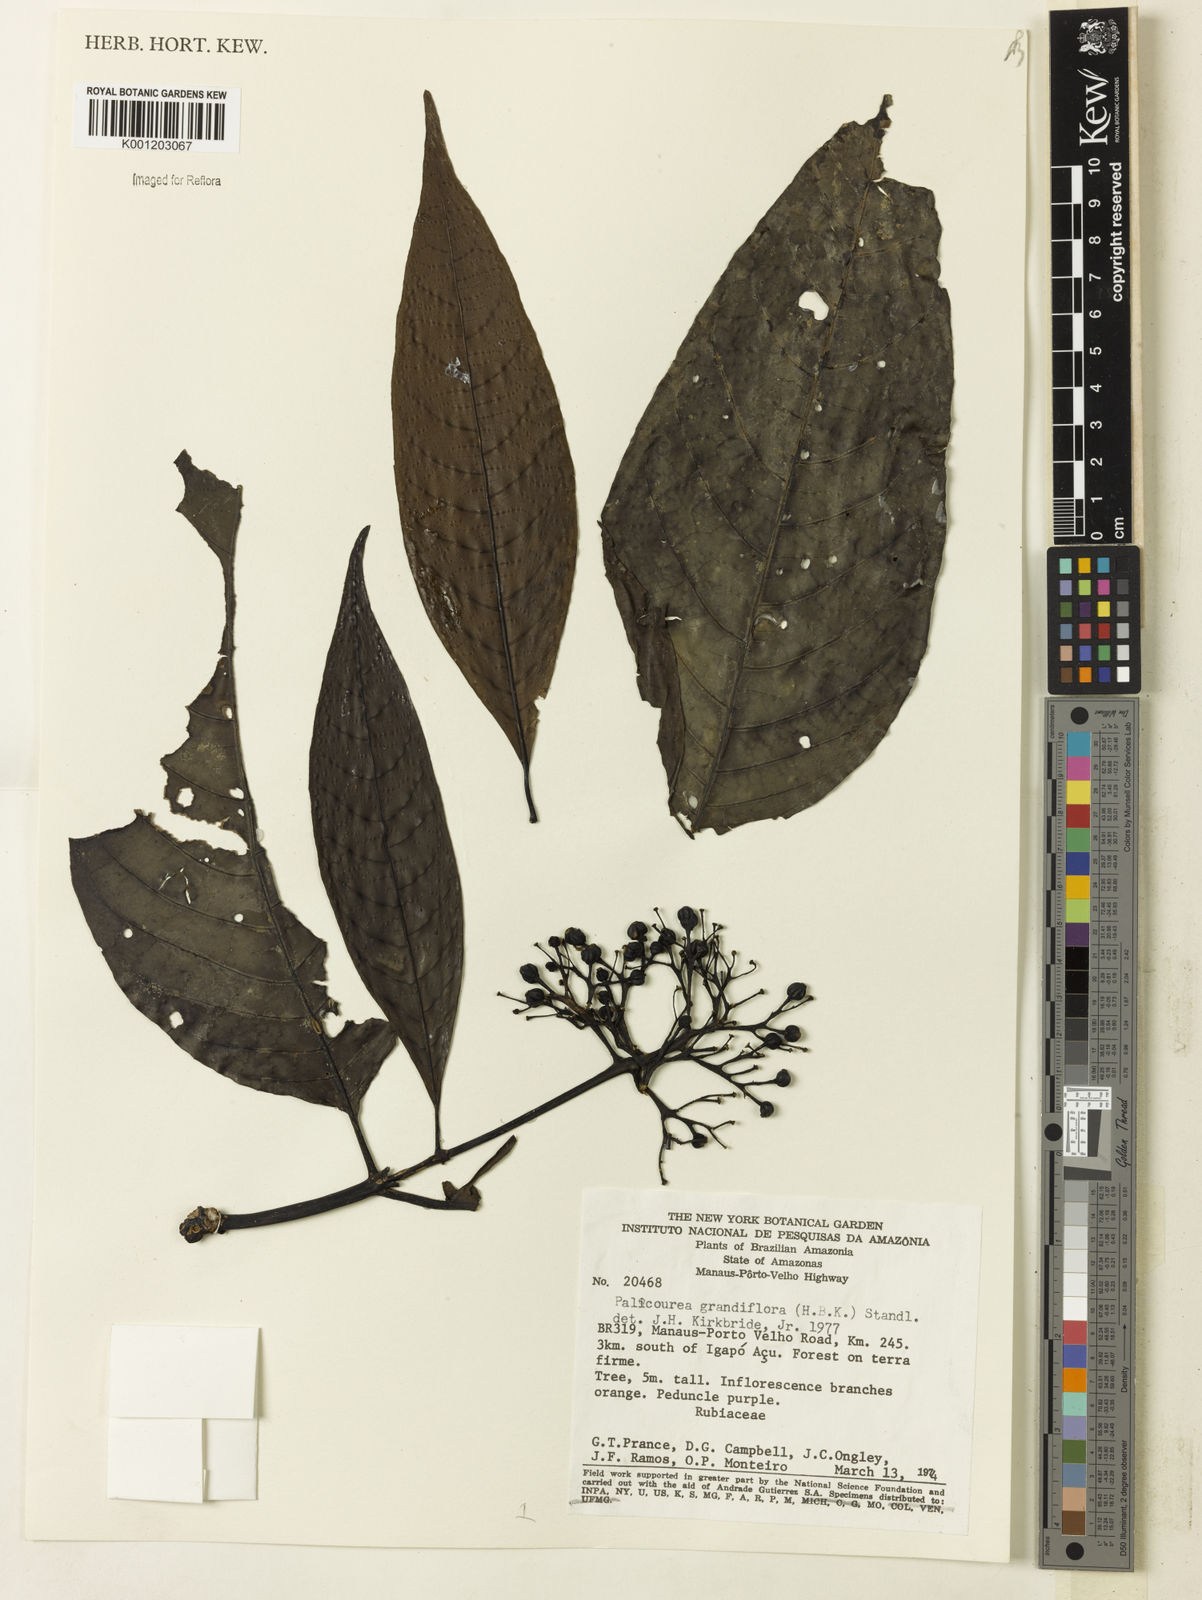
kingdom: Plantae
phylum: Tracheophyta
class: Magnoliopsida
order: Gentianales
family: Rubiaceae
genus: Palicourea
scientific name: Palicourea grandiflora
